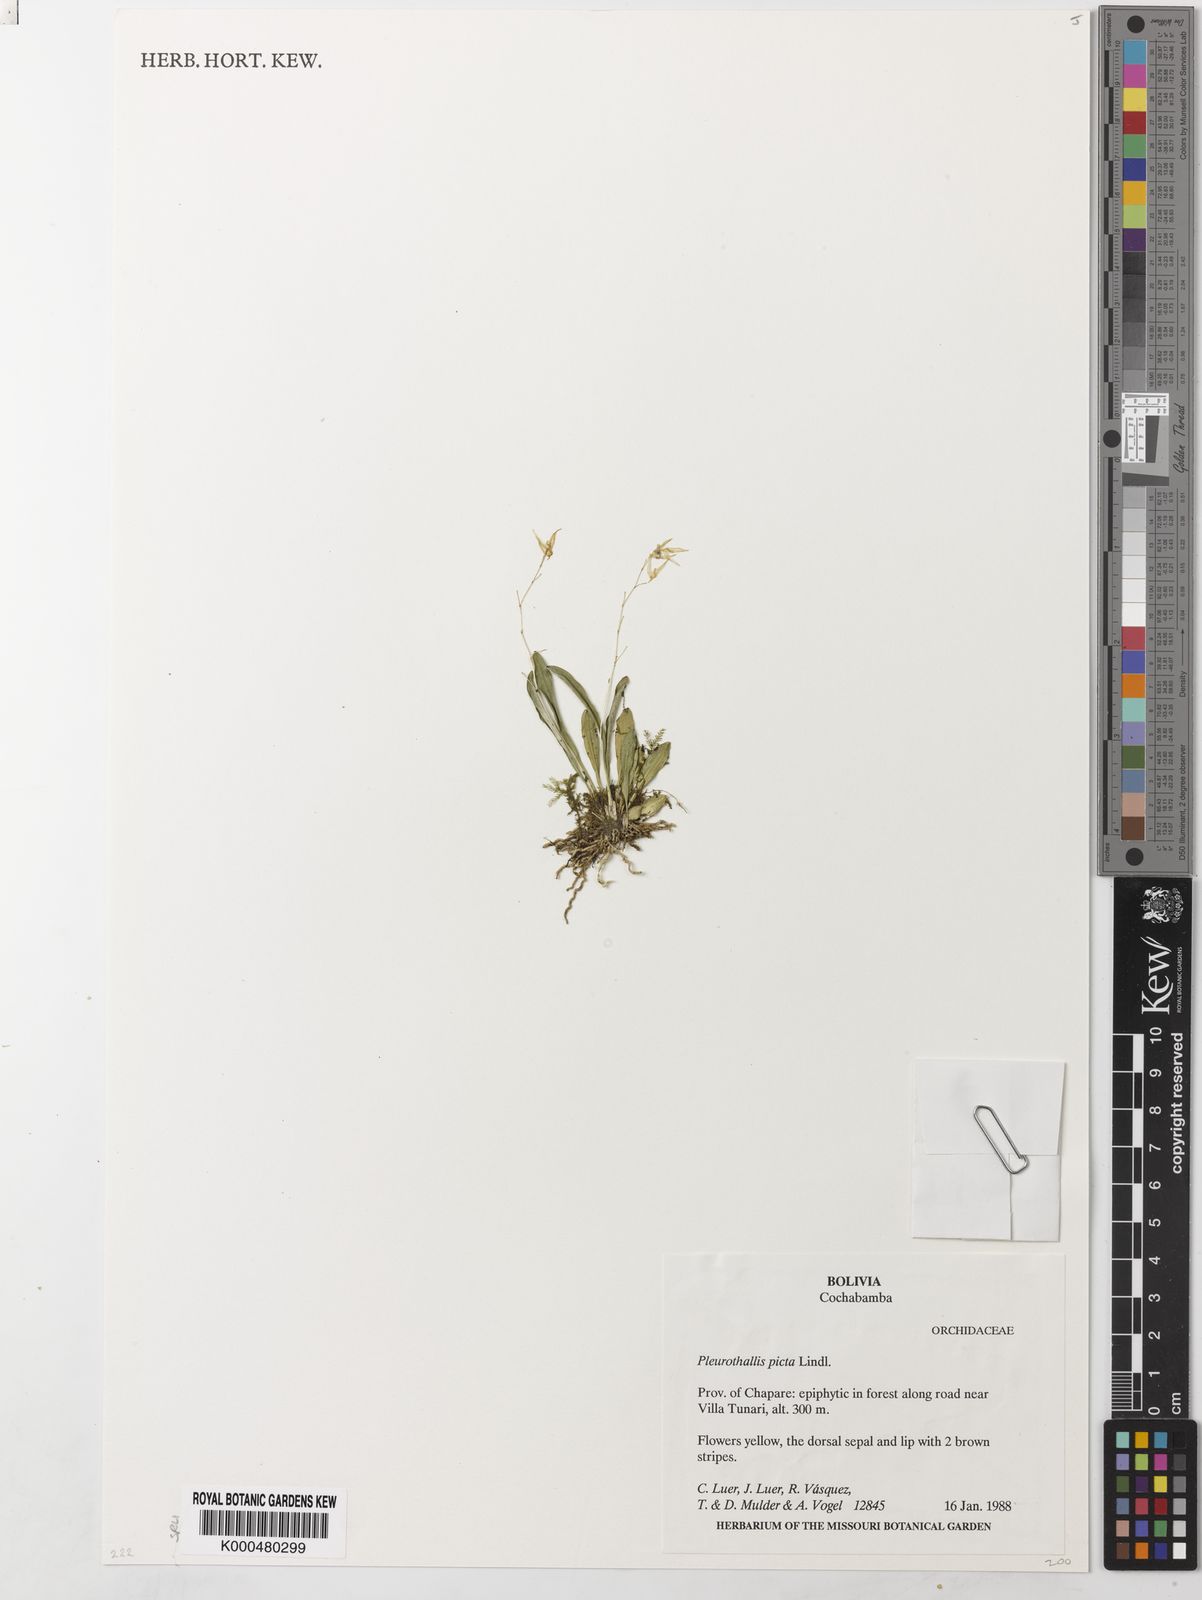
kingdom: Plantae
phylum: Tracheophyta
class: Liliopsida
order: Asparagales
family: Orchidaceae
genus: Specklinia
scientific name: Specklinia picta
